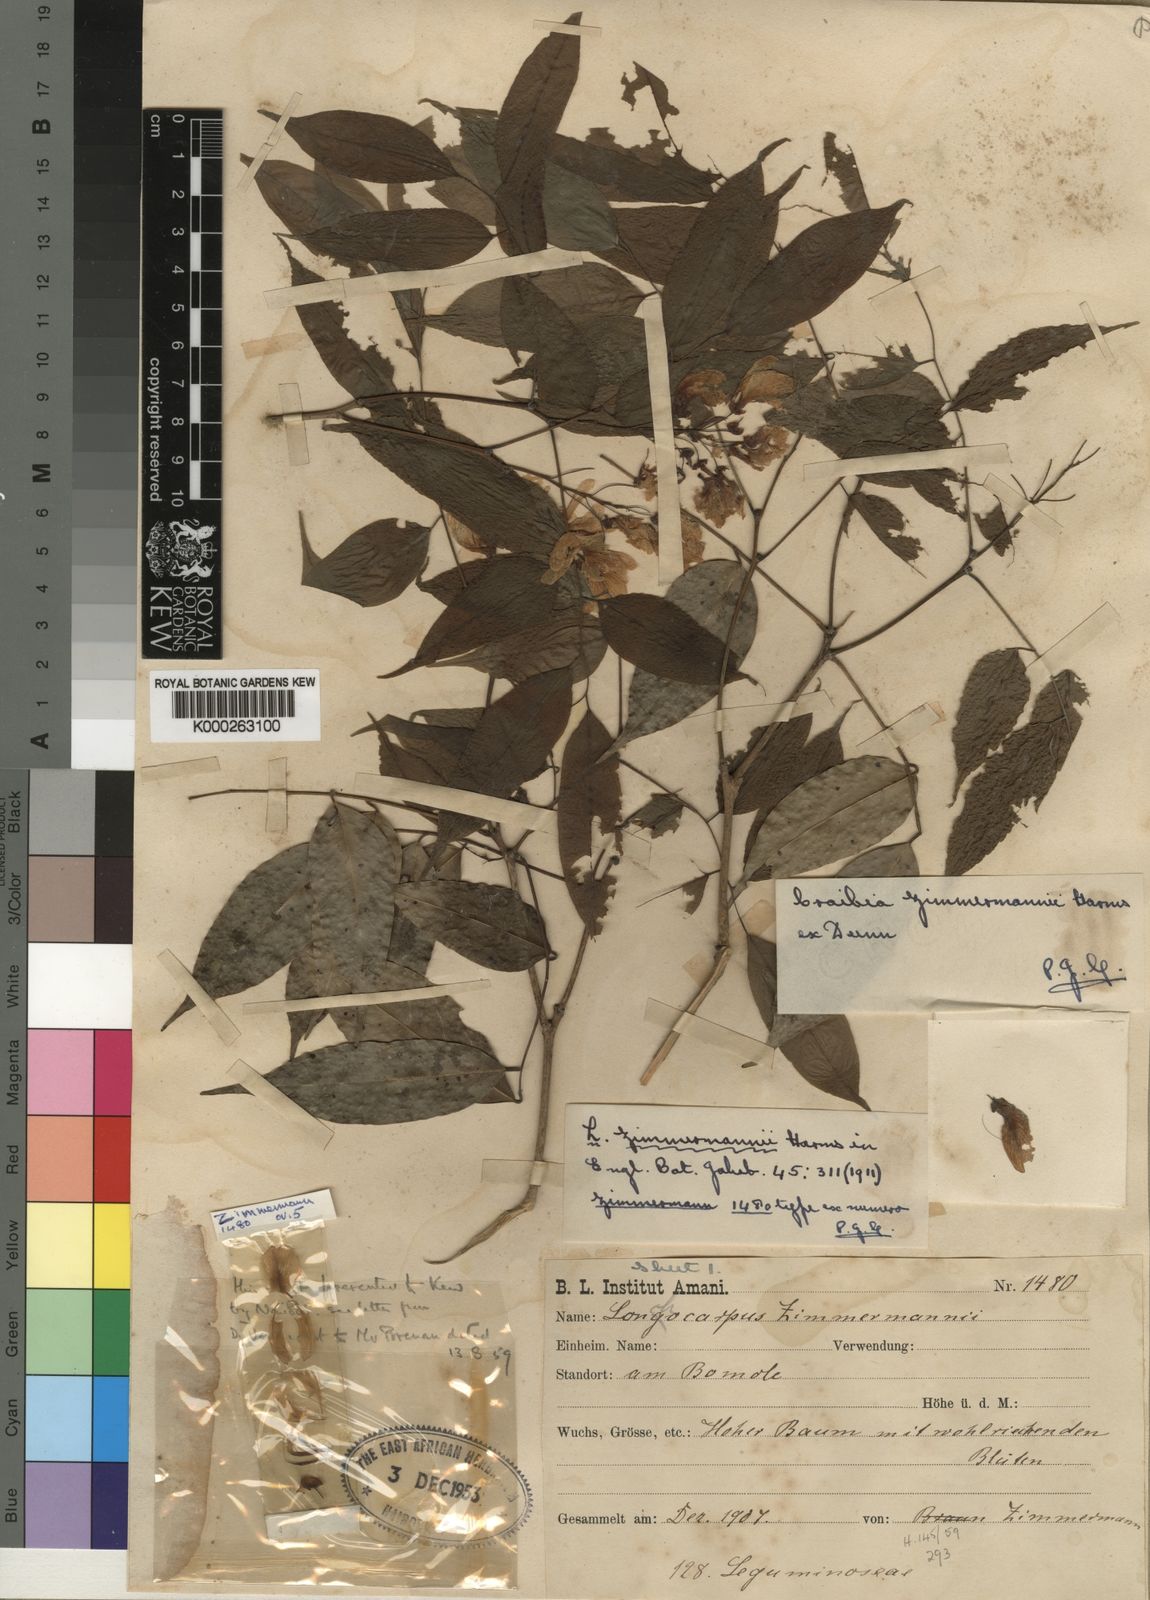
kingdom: Plantae
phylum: Tracheophyta
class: Magnoliopsida
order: Fabales
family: Fabaceae
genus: Craibia
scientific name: Craibia zimmermannii
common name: Sandforest pea-wood
